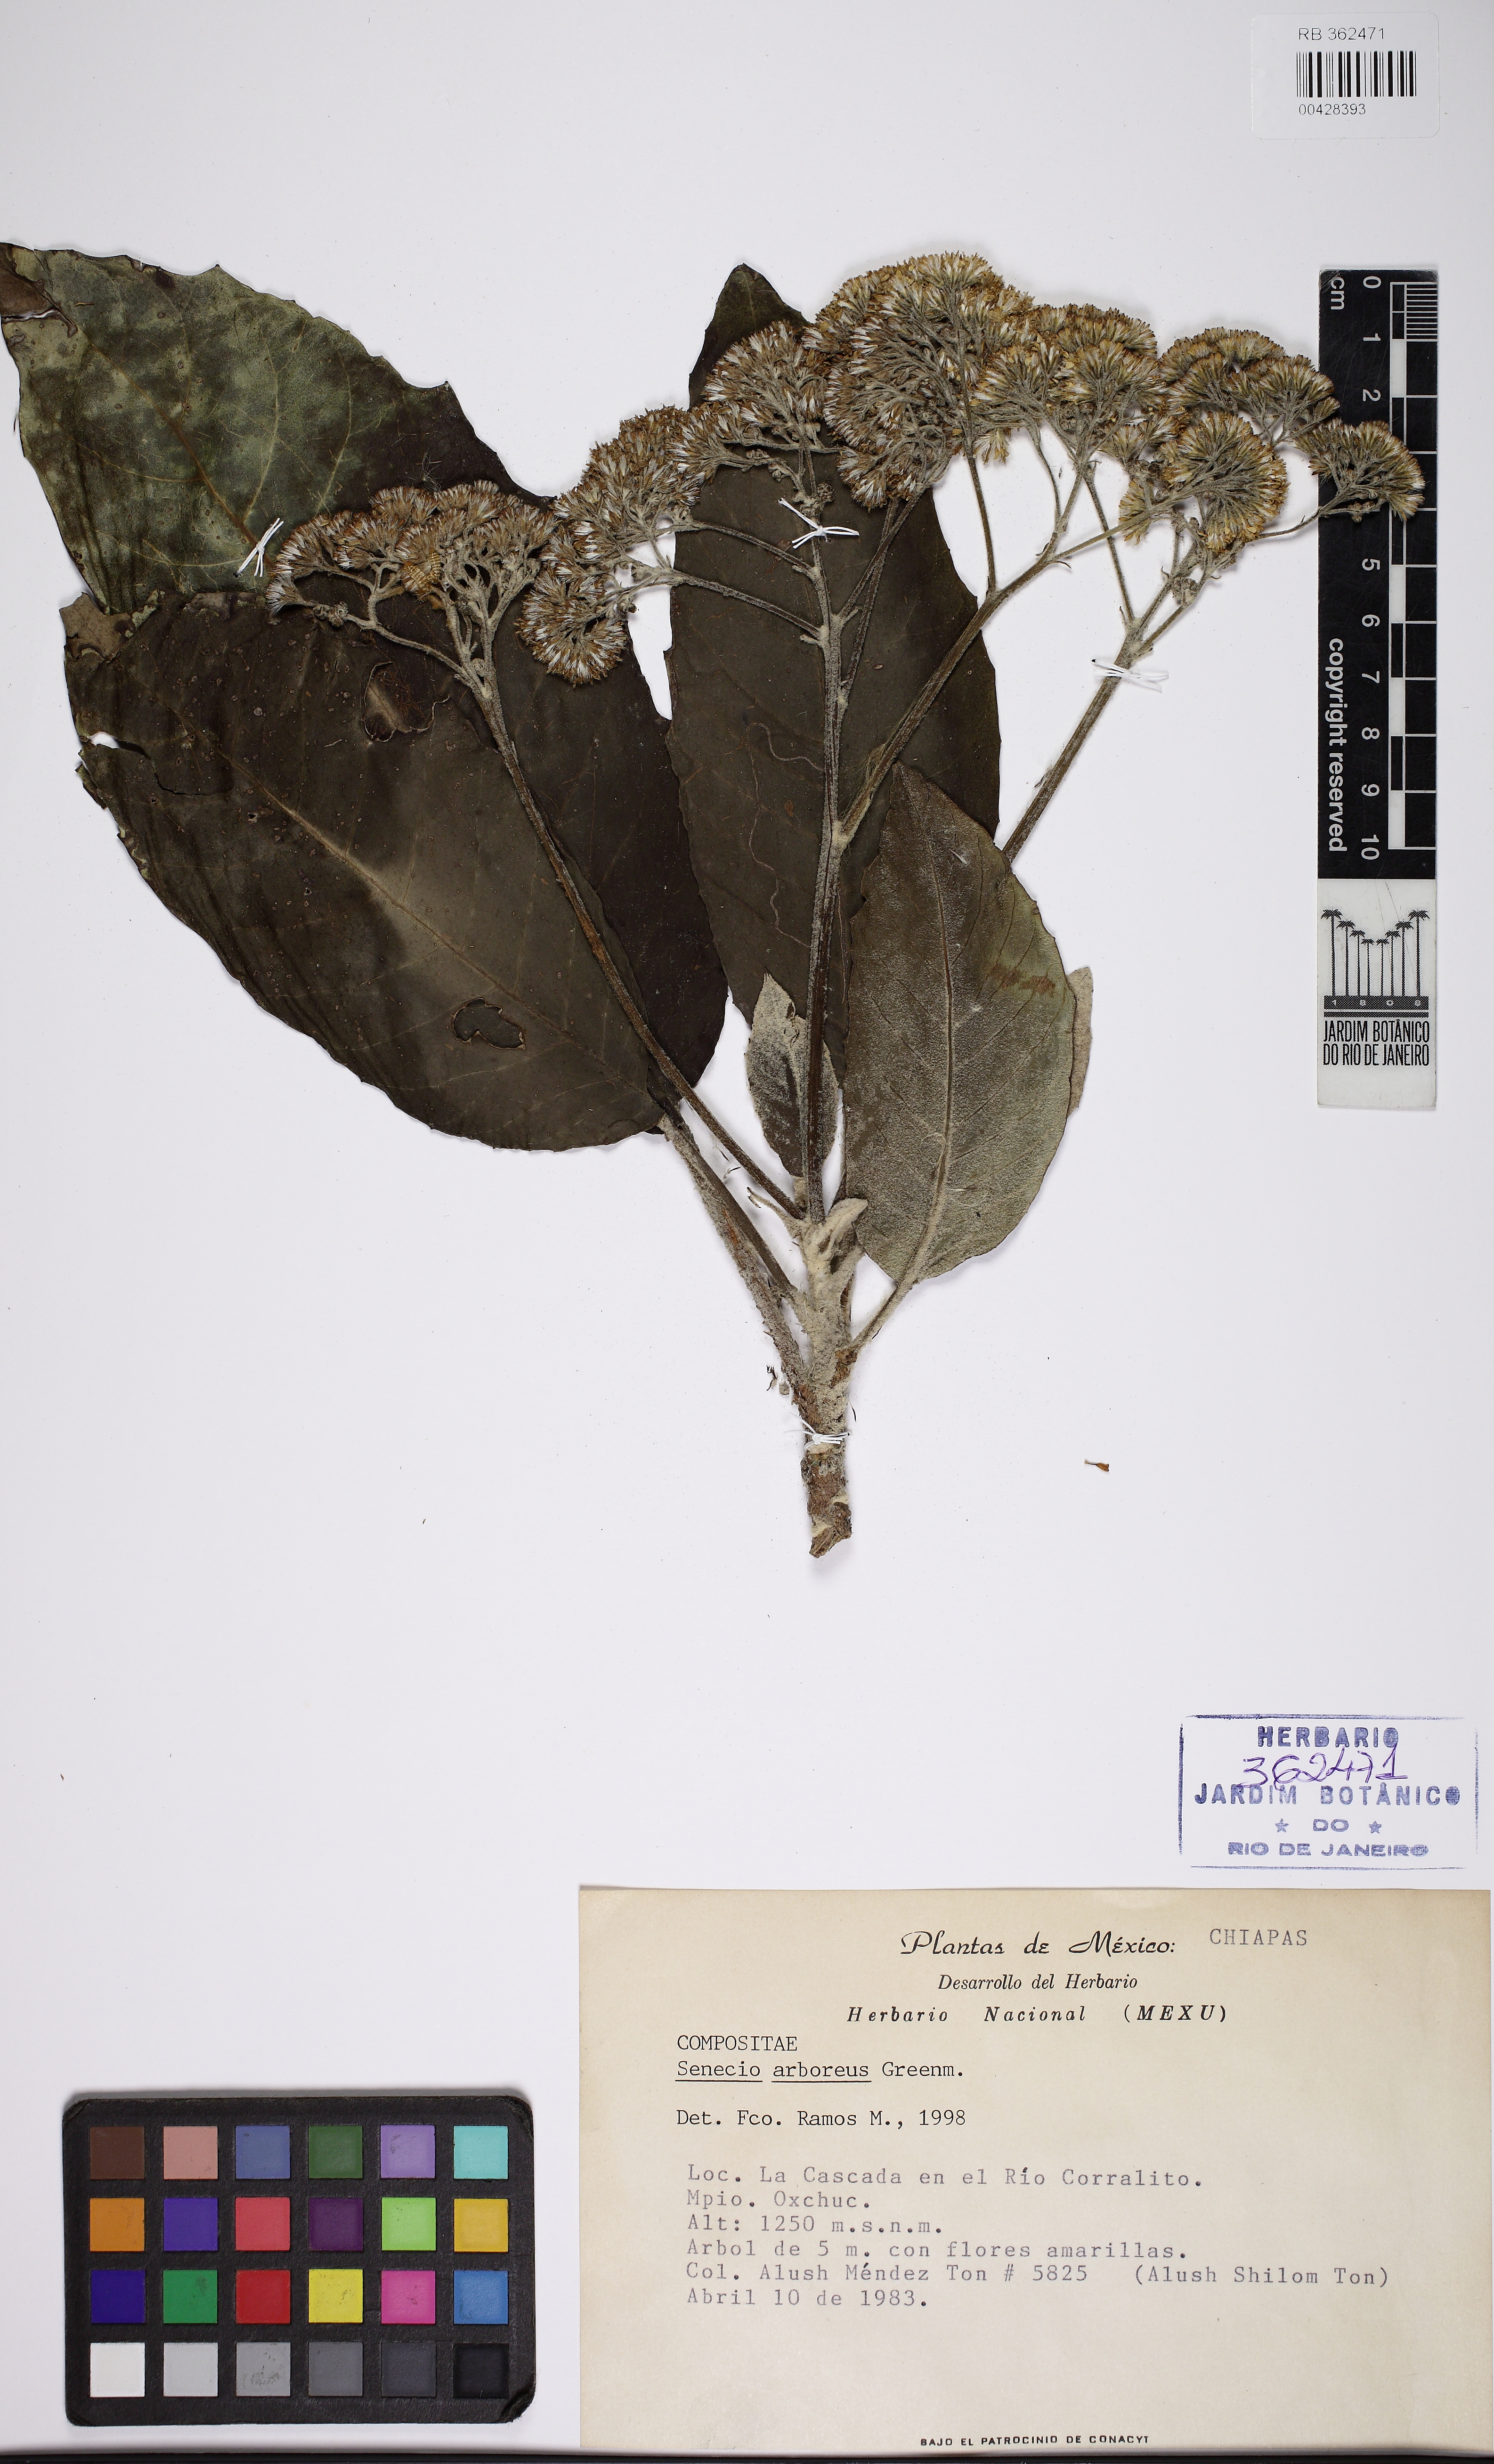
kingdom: Plantae
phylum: Tracheophyta
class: Magnoliopsida
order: Asterales
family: Asteraceae
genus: Pentacalia
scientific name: Pentacalia arborea
